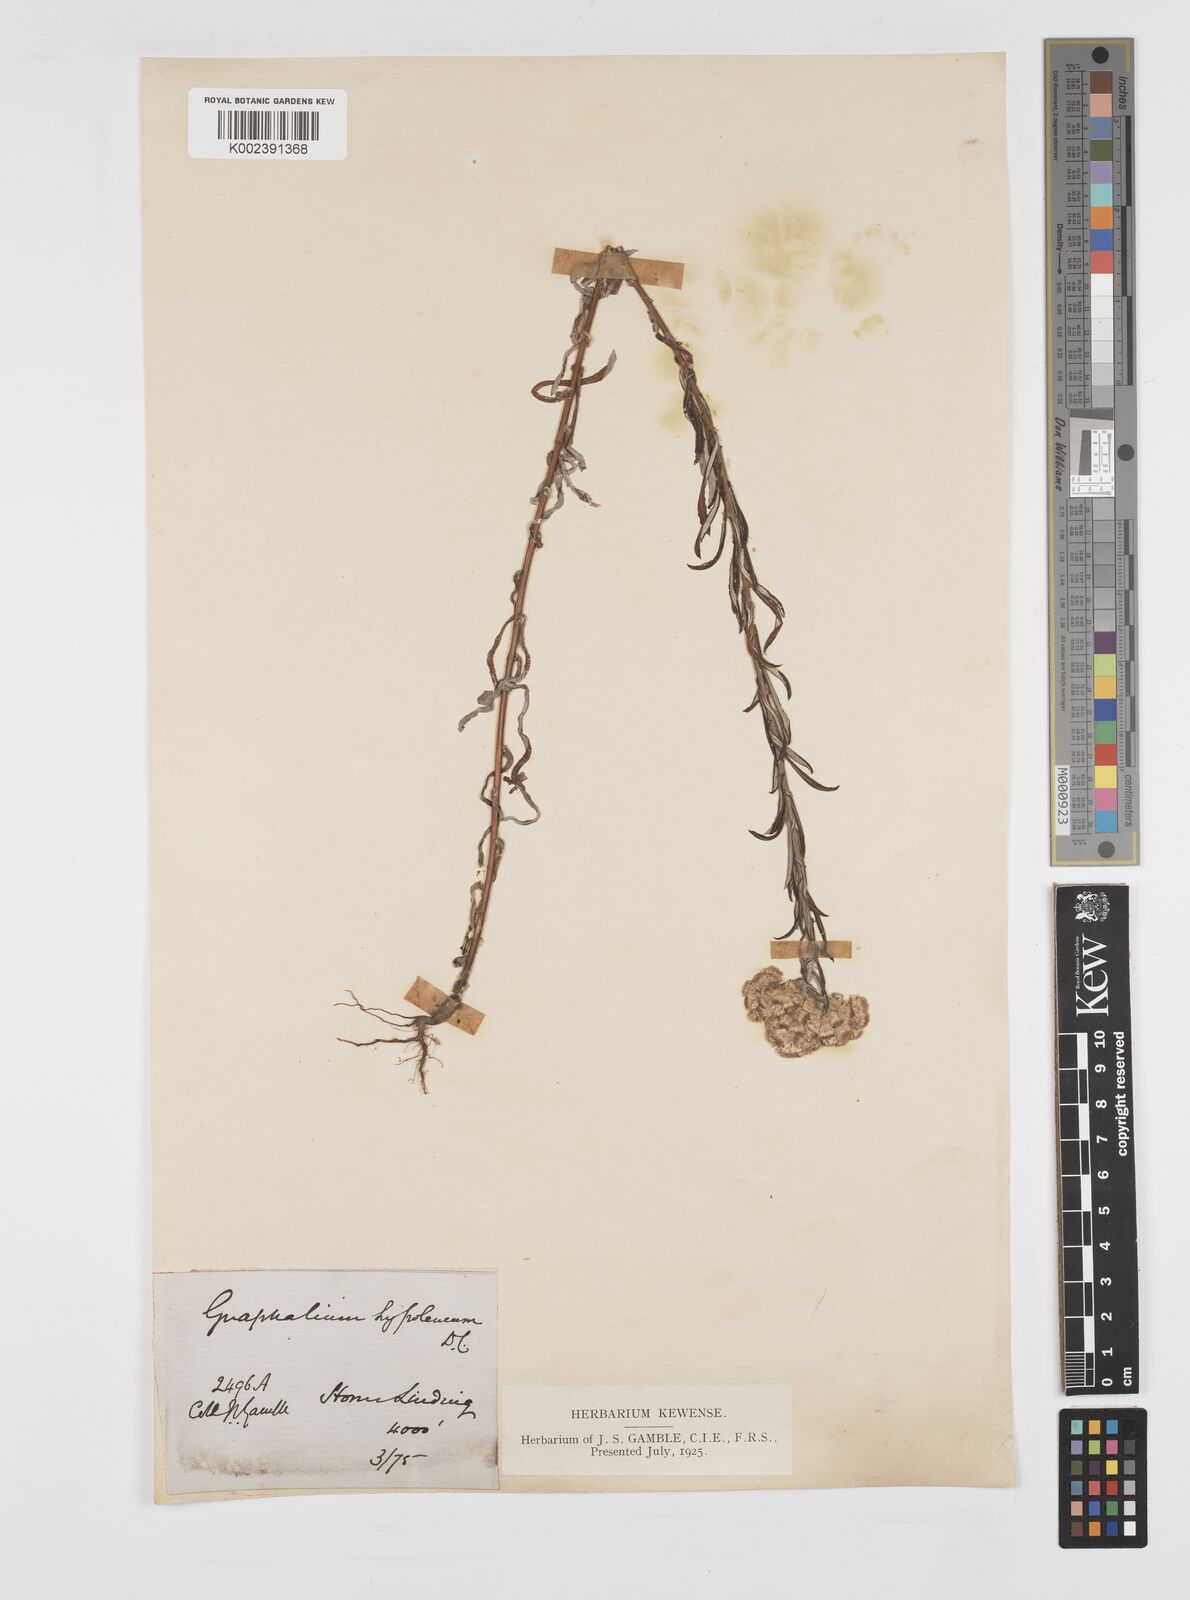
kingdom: Plantae
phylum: Tracheophyta
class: Magnoliopsida
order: Asterales
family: Asteraceae
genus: Pseudognaphalium
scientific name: Pseudognaphalium hypoleucum
